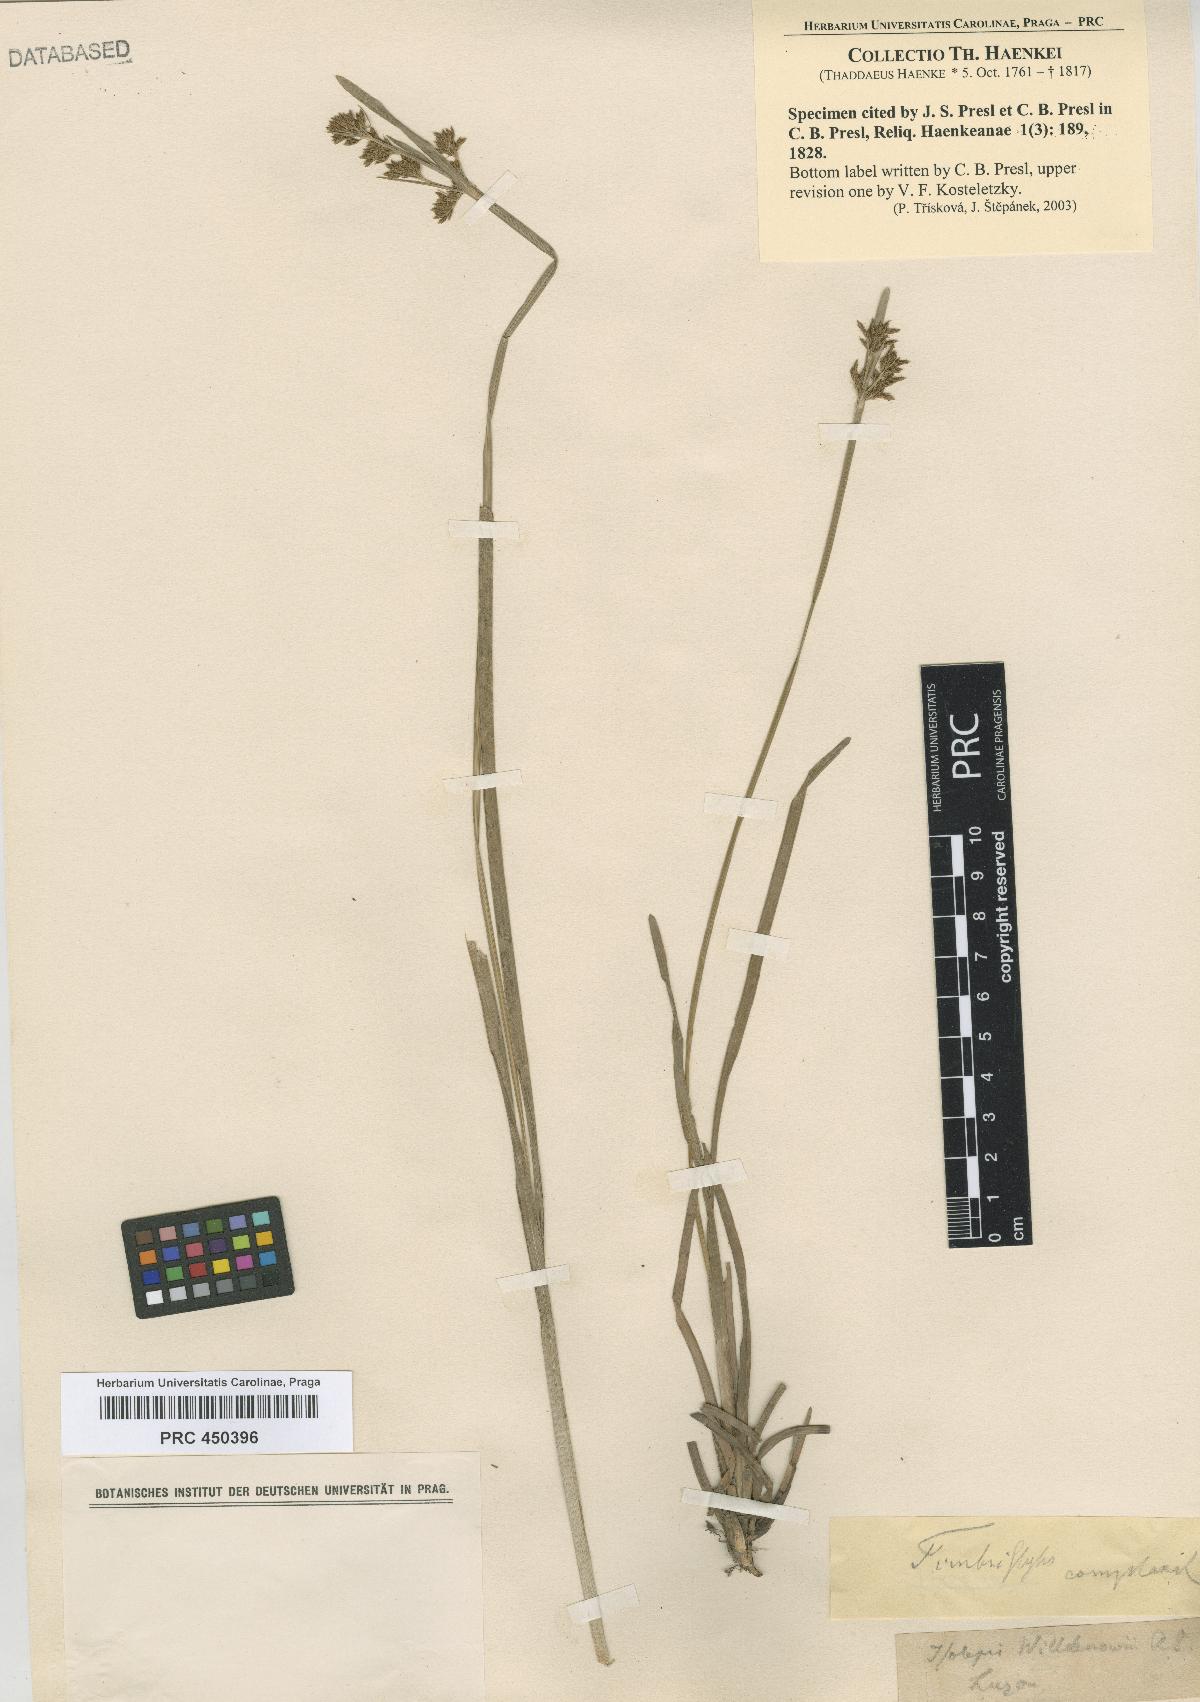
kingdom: Plantae
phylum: Tracheophyta
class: Liliopsida
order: Poales
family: Cyperaceae
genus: Fimbristylis
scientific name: Fimbristylis complanata
